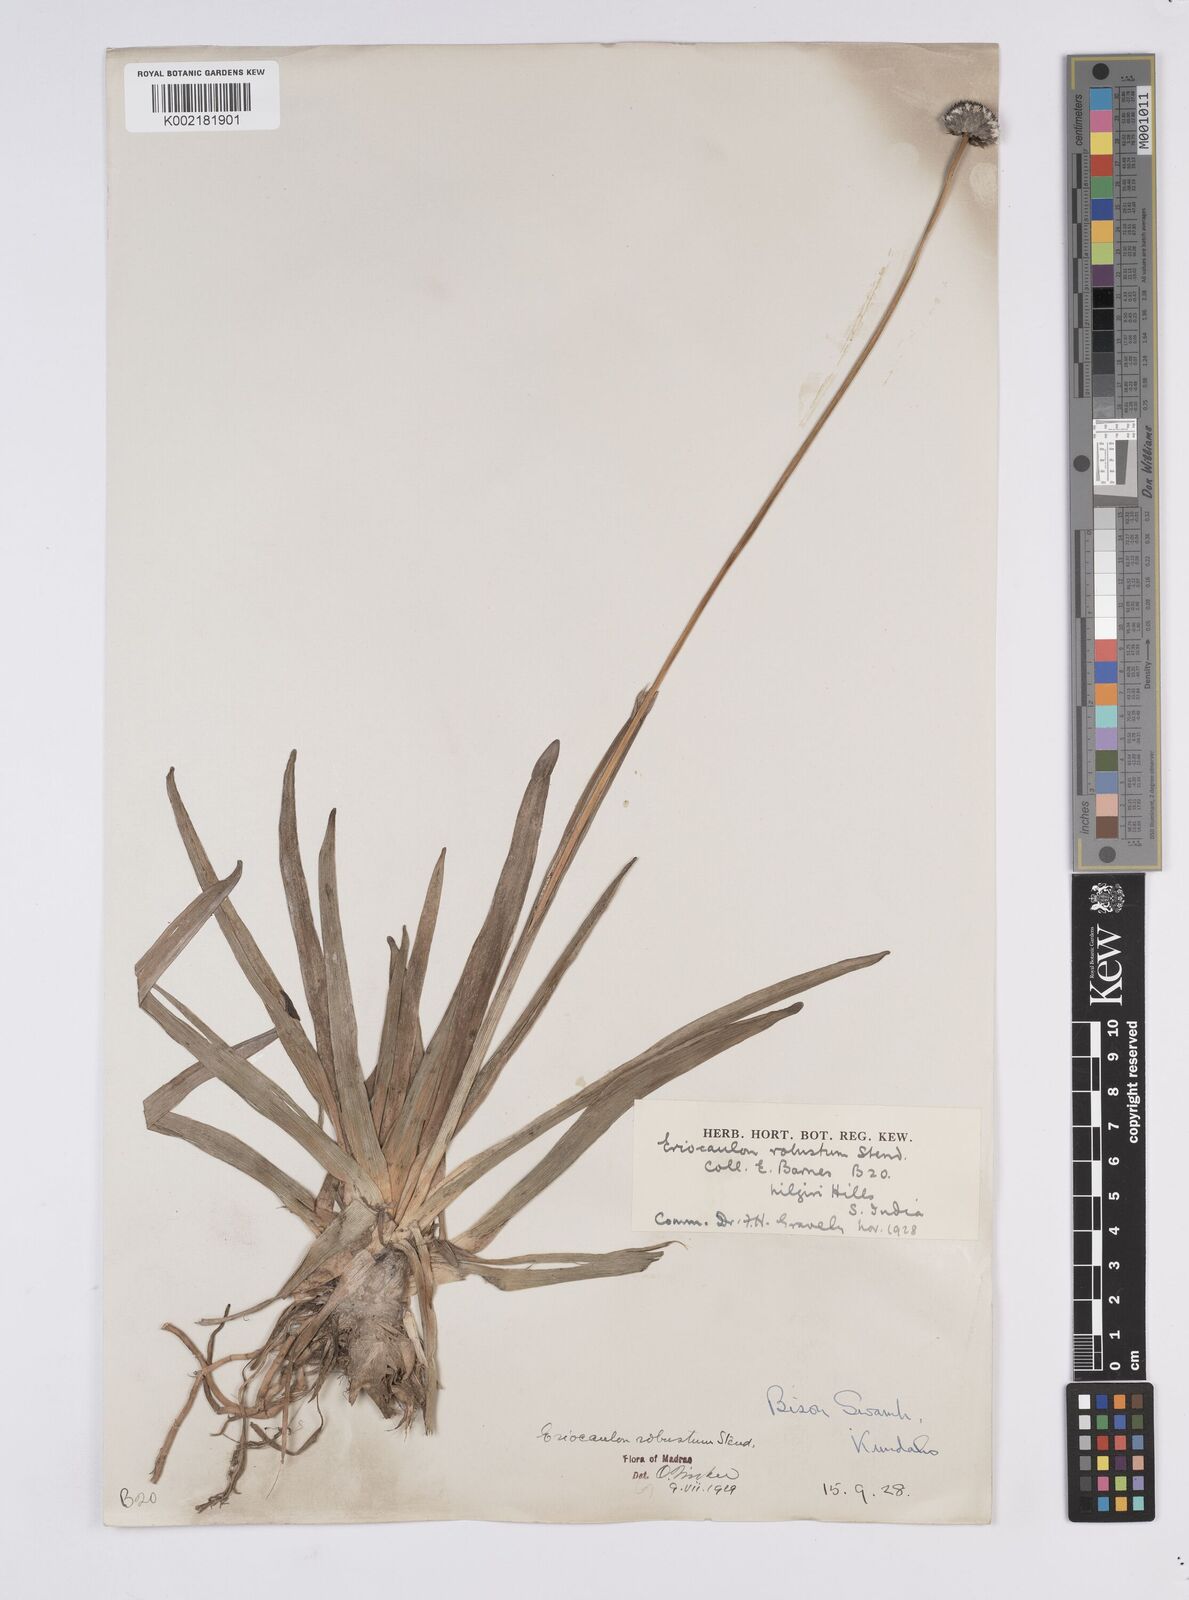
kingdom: Plantae
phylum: Tracheophyta
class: Liliopsida
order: Poales
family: Eriocaulaceae
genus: Eriocaulon
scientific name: Eriocaulon robustum
